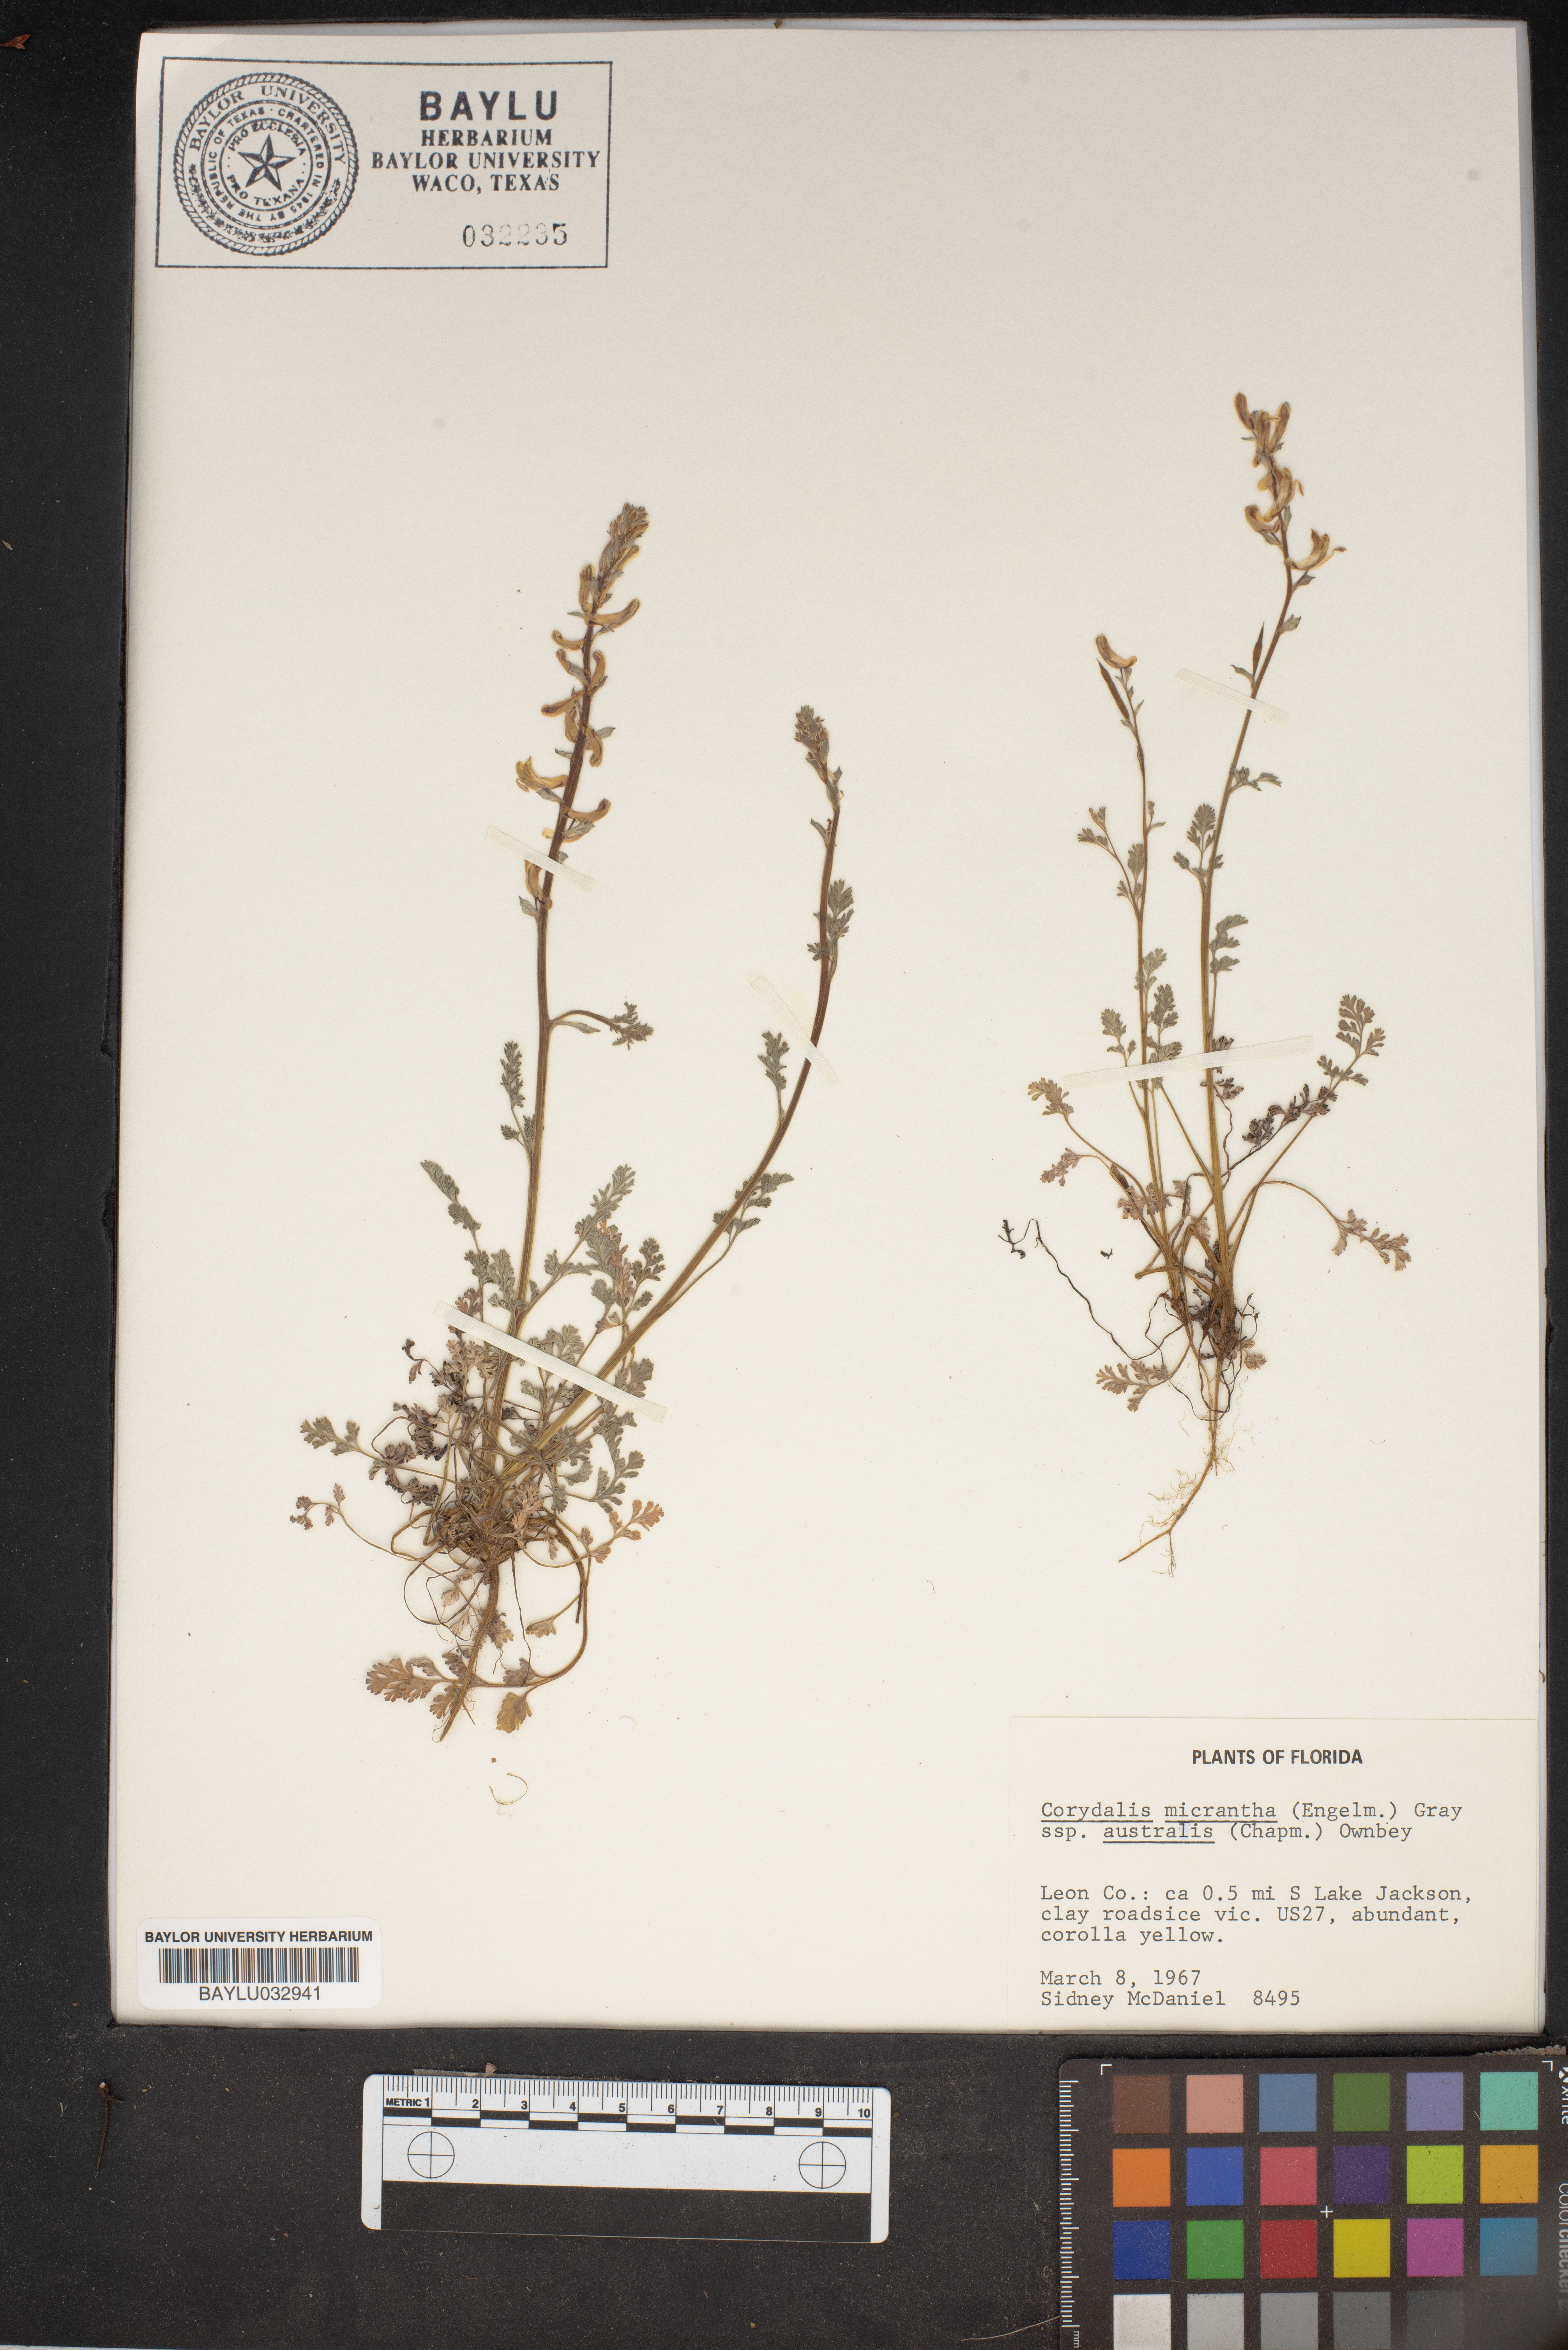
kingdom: Plantae
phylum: Tracheophyta
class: Magnoliopsida
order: Ranunculales
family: Papaveraceae
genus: Corydalis
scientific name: Corydalis micrantha
